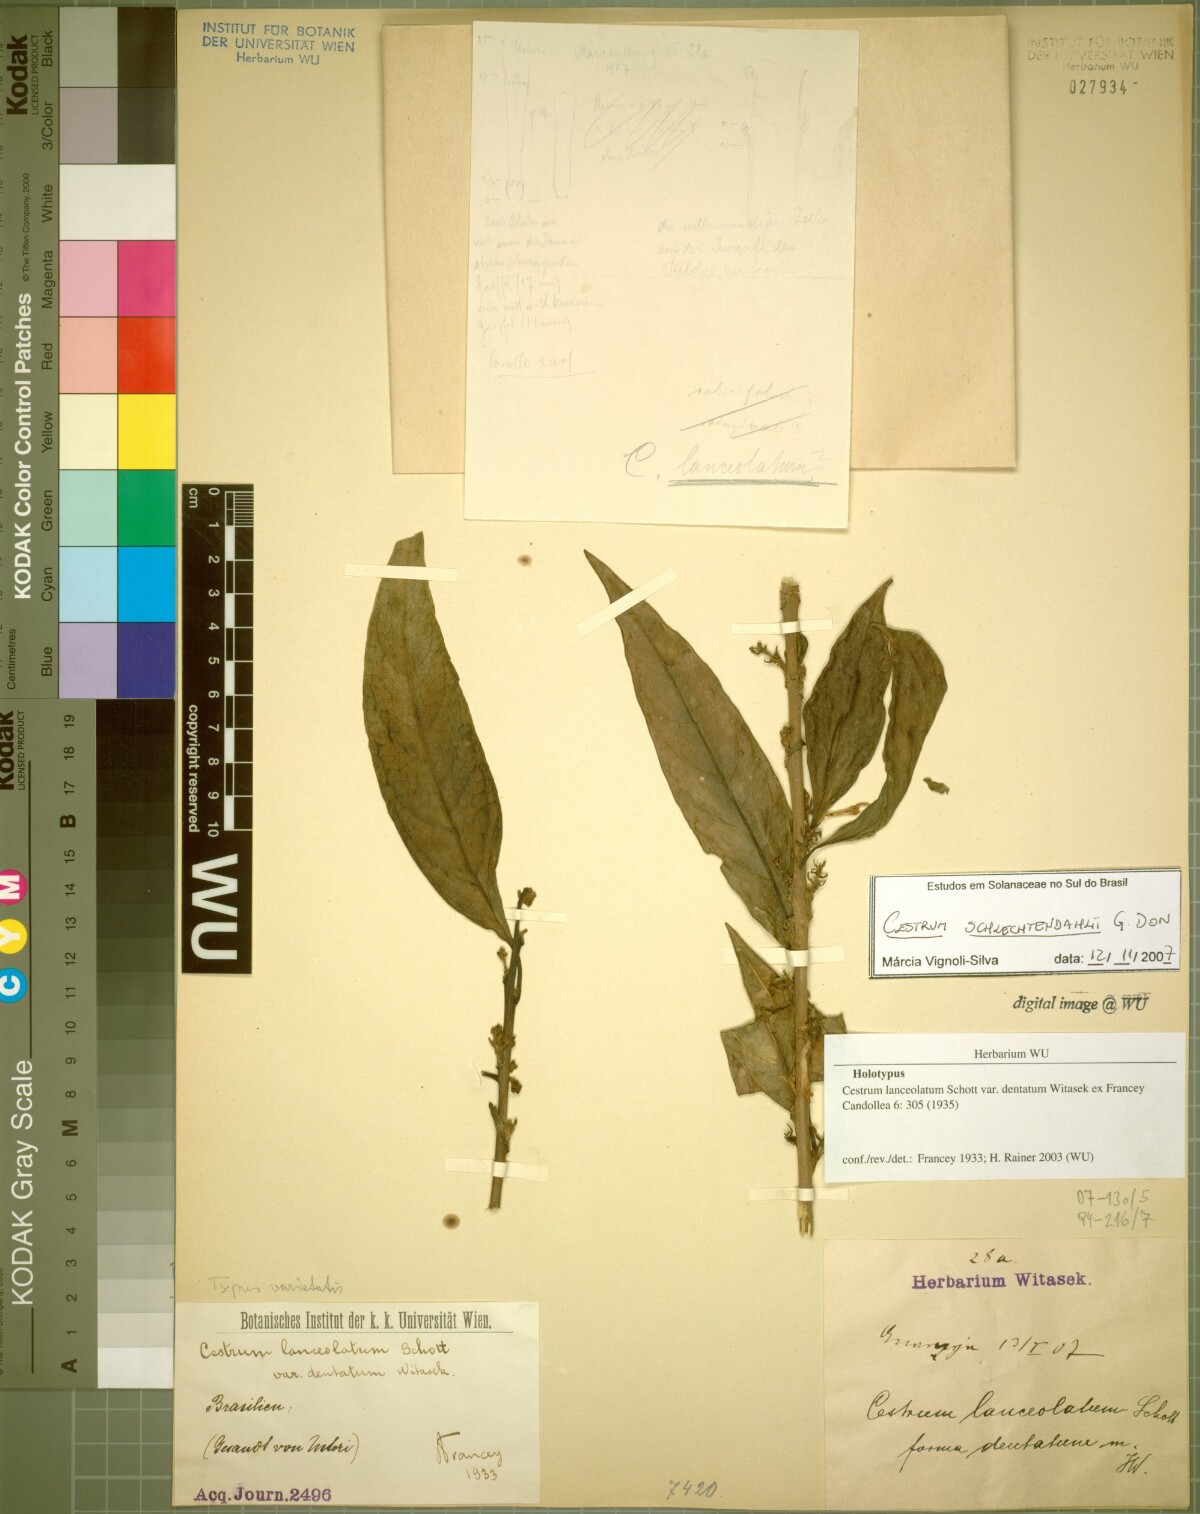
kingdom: Plantae
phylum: Tracheophyta
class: Magnoliopsida
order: Solanales
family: Solanaceae
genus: Cestrum
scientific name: Cestrum bracteatum
